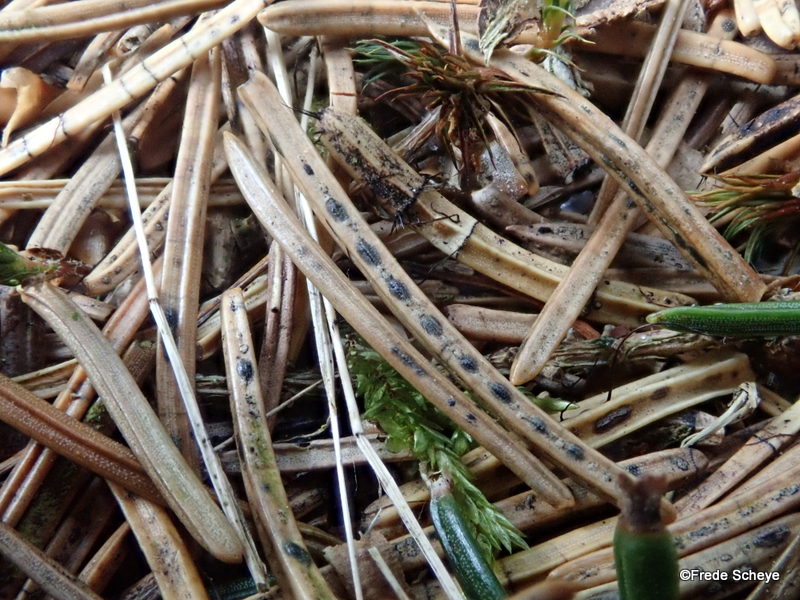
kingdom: Fungi
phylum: Ascomycota
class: Leotiomycetes
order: Rhytismatales
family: Rhytismataceae
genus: Lophodermium
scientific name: Lophodermium piceae
